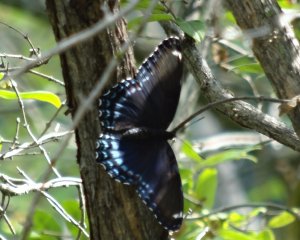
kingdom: Animalia
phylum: Arthropoda
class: Insecta
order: Lepidoptera
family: Nymphalidae
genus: Limenitis
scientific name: Limenitis astyanax
